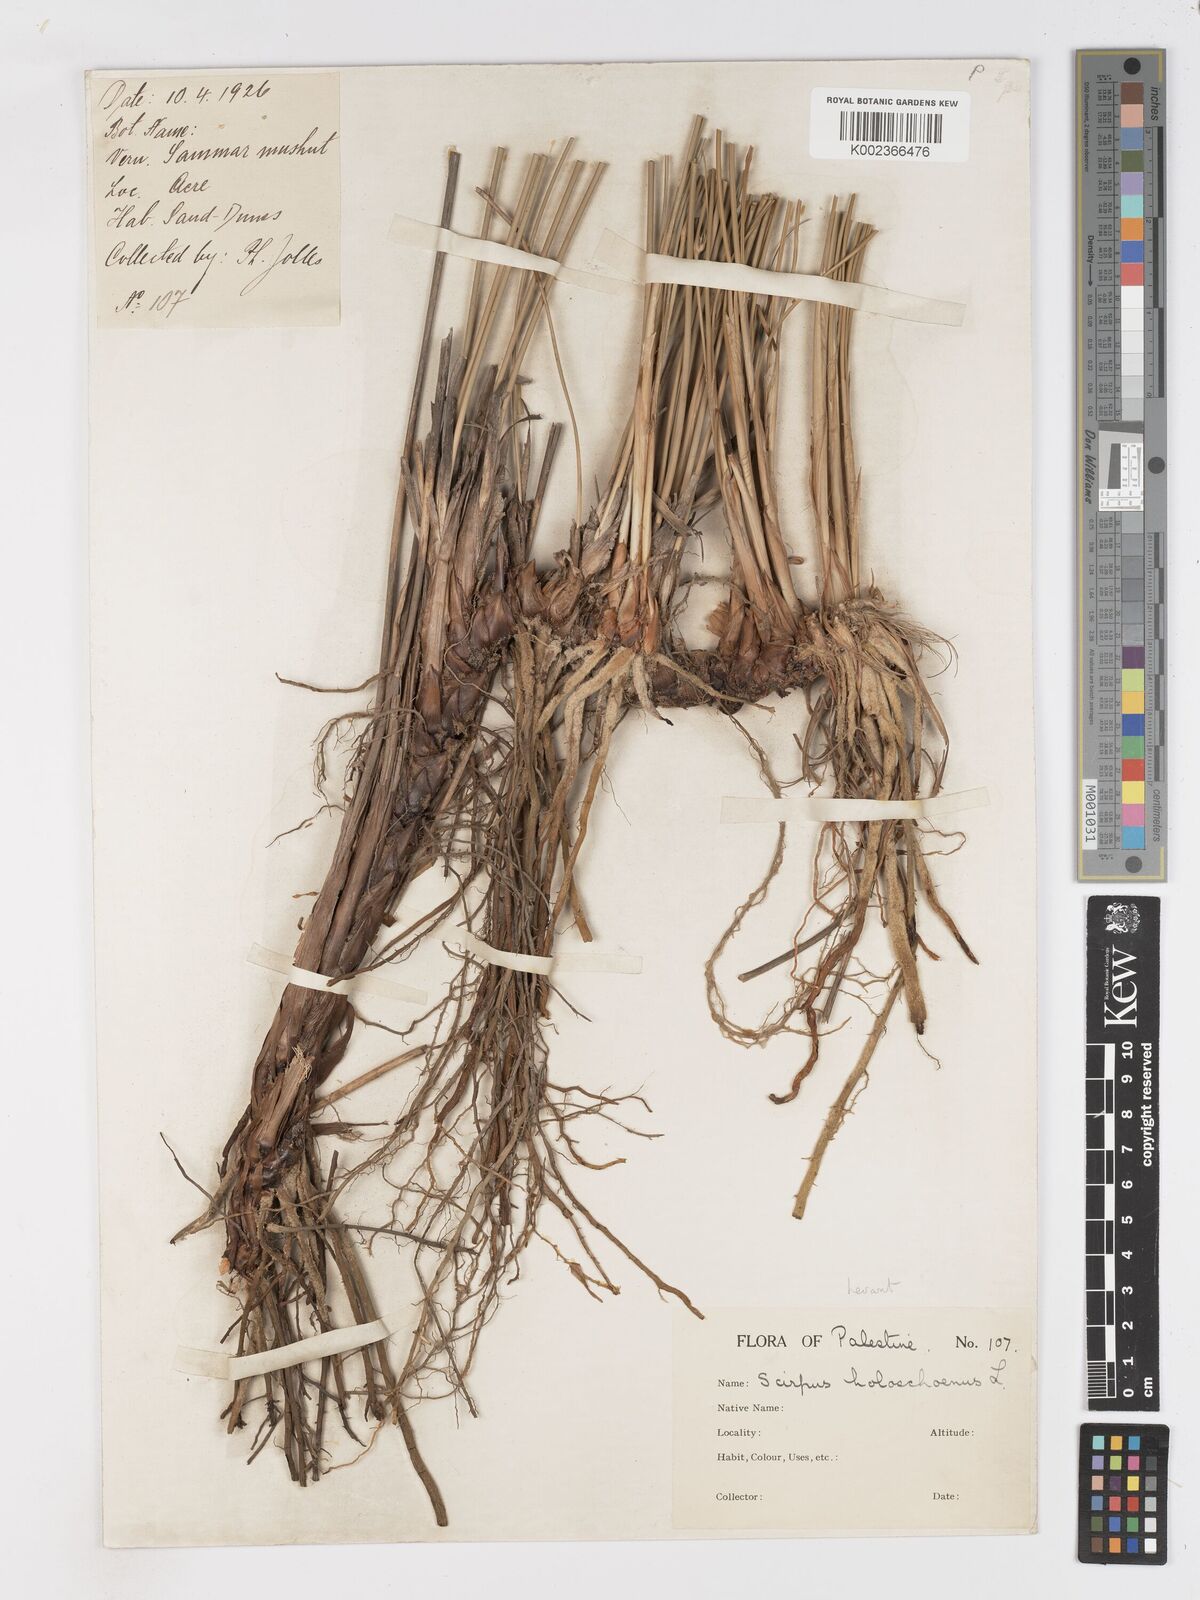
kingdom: Plantae
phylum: Tracheophyta
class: Liliopsida
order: Poales
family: Cyperaceae
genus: Scirpoides
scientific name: Scirpoides holoschoenus
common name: Round-headed club-rush
